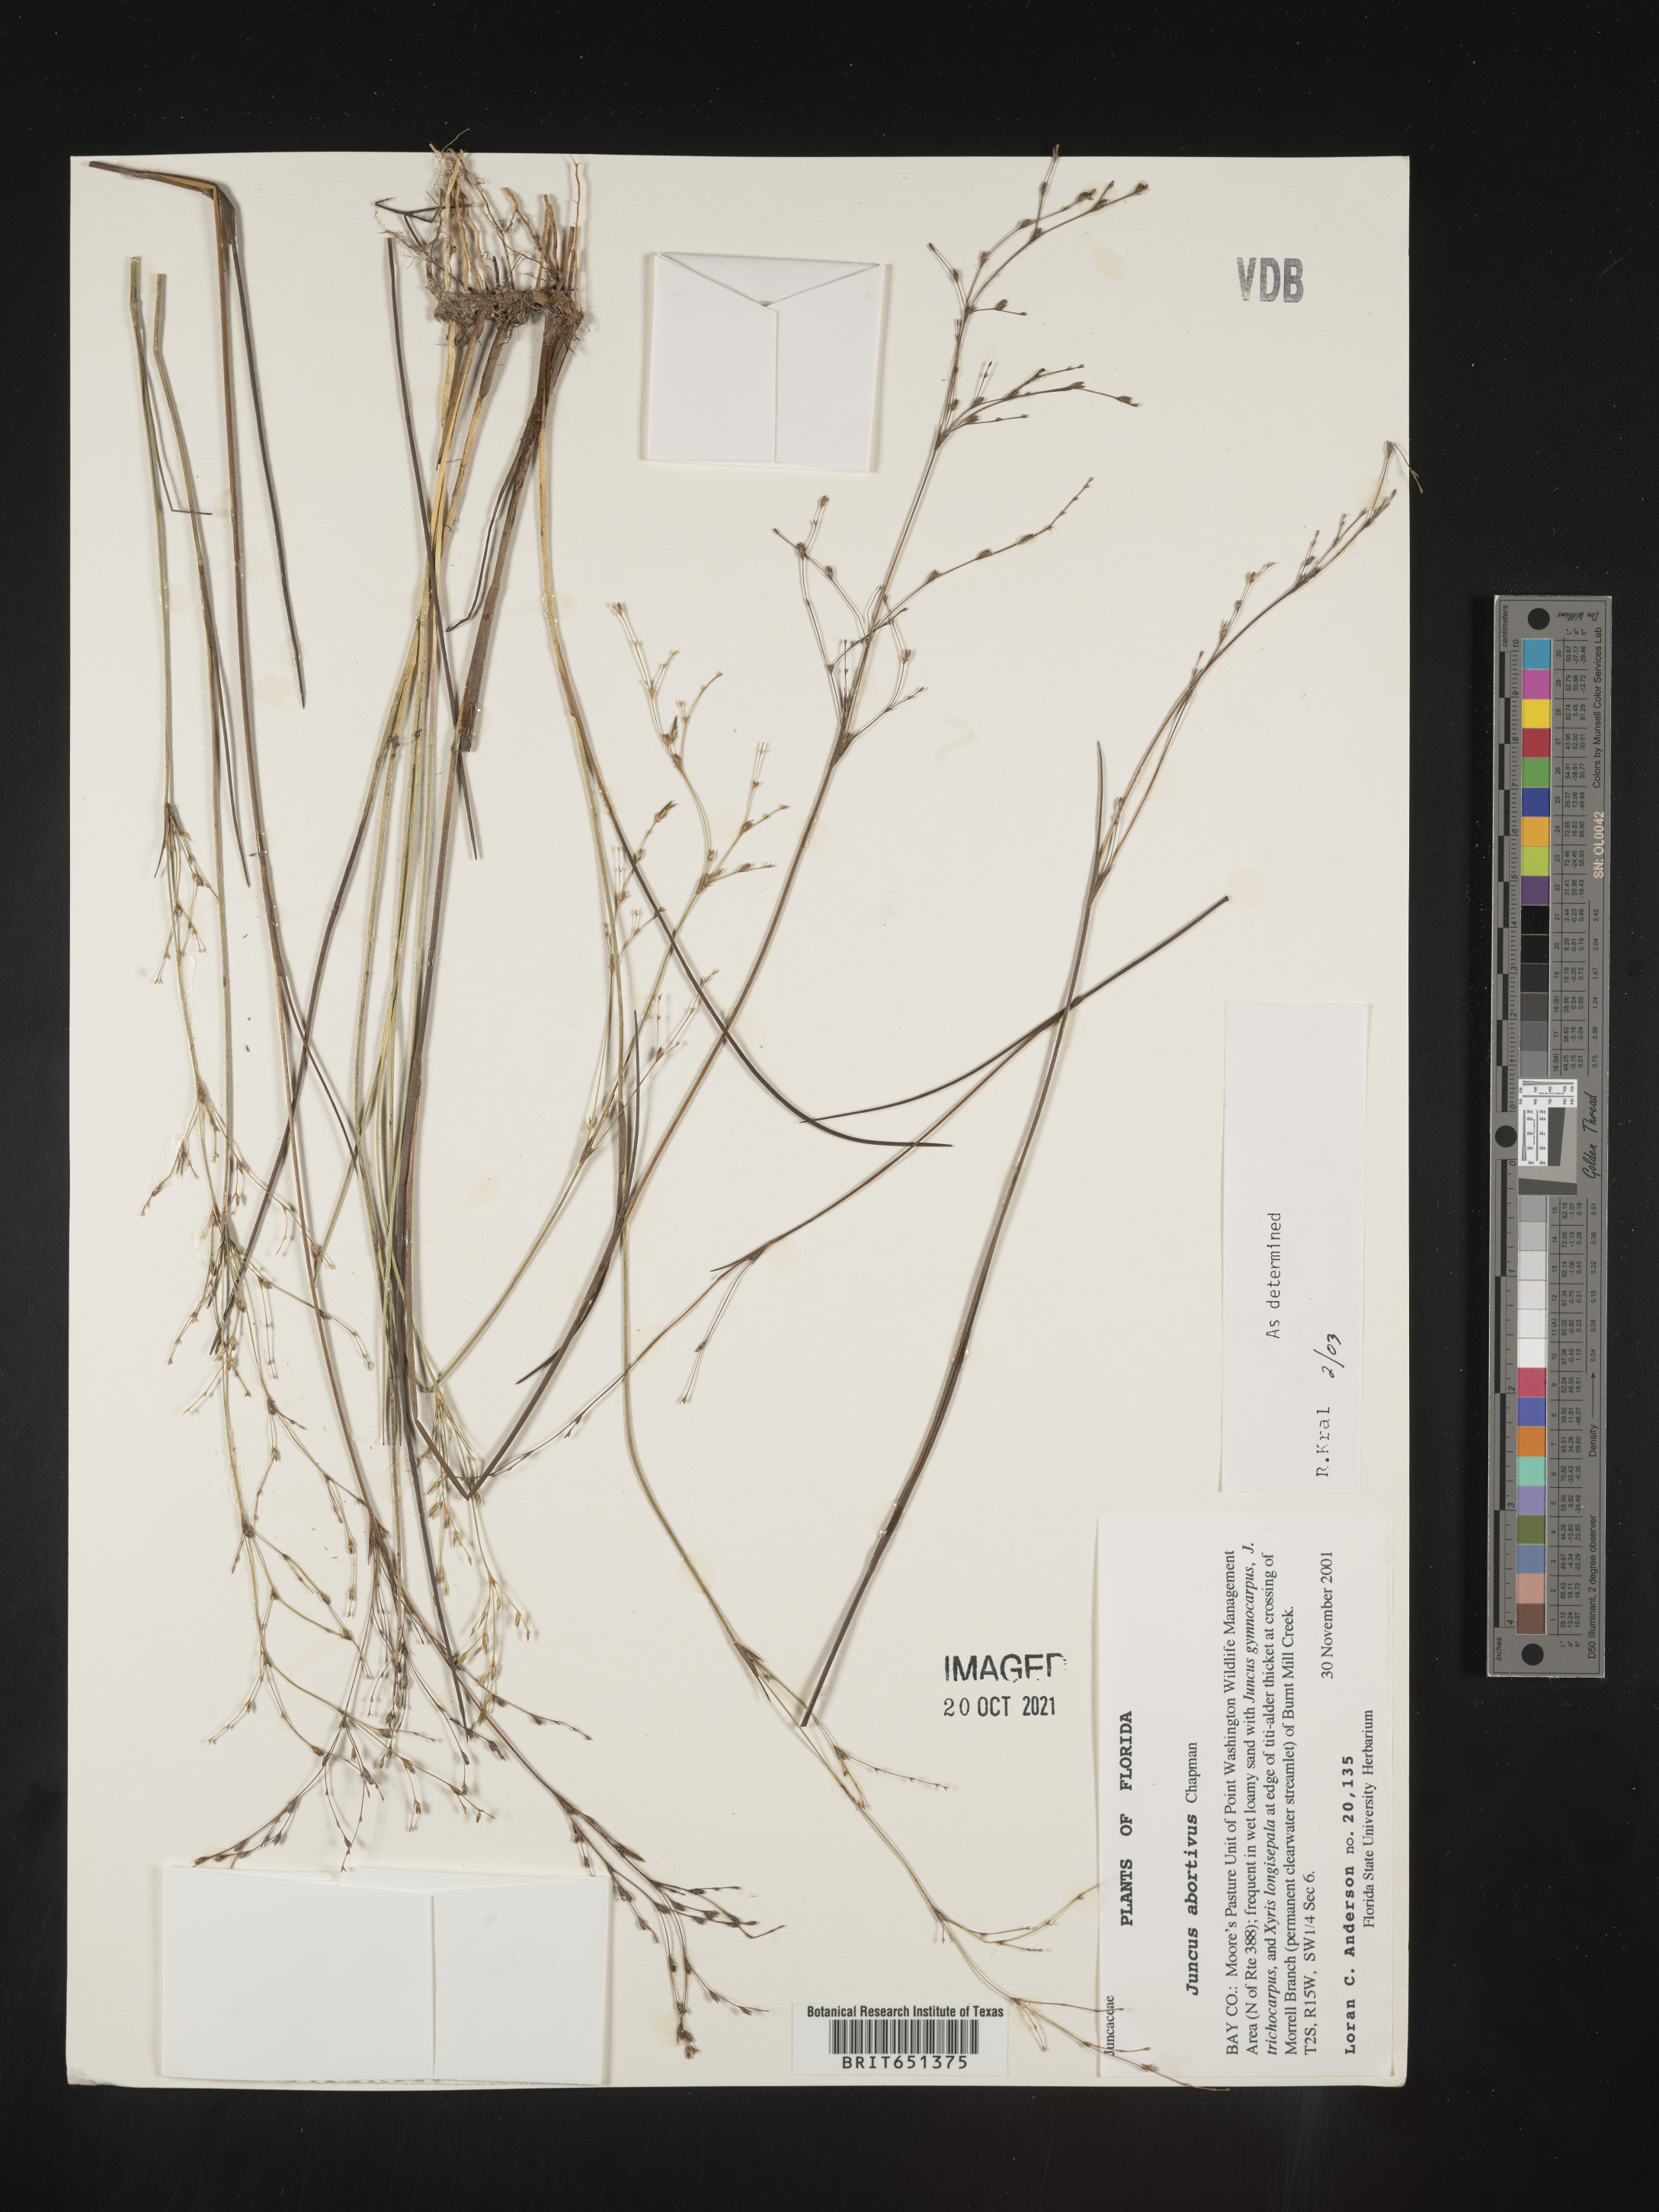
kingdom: Plantae
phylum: Tracheophyta
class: Liliopsida
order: Poales
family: Juncaceae
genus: Juncus
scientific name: Juncus abortivus
